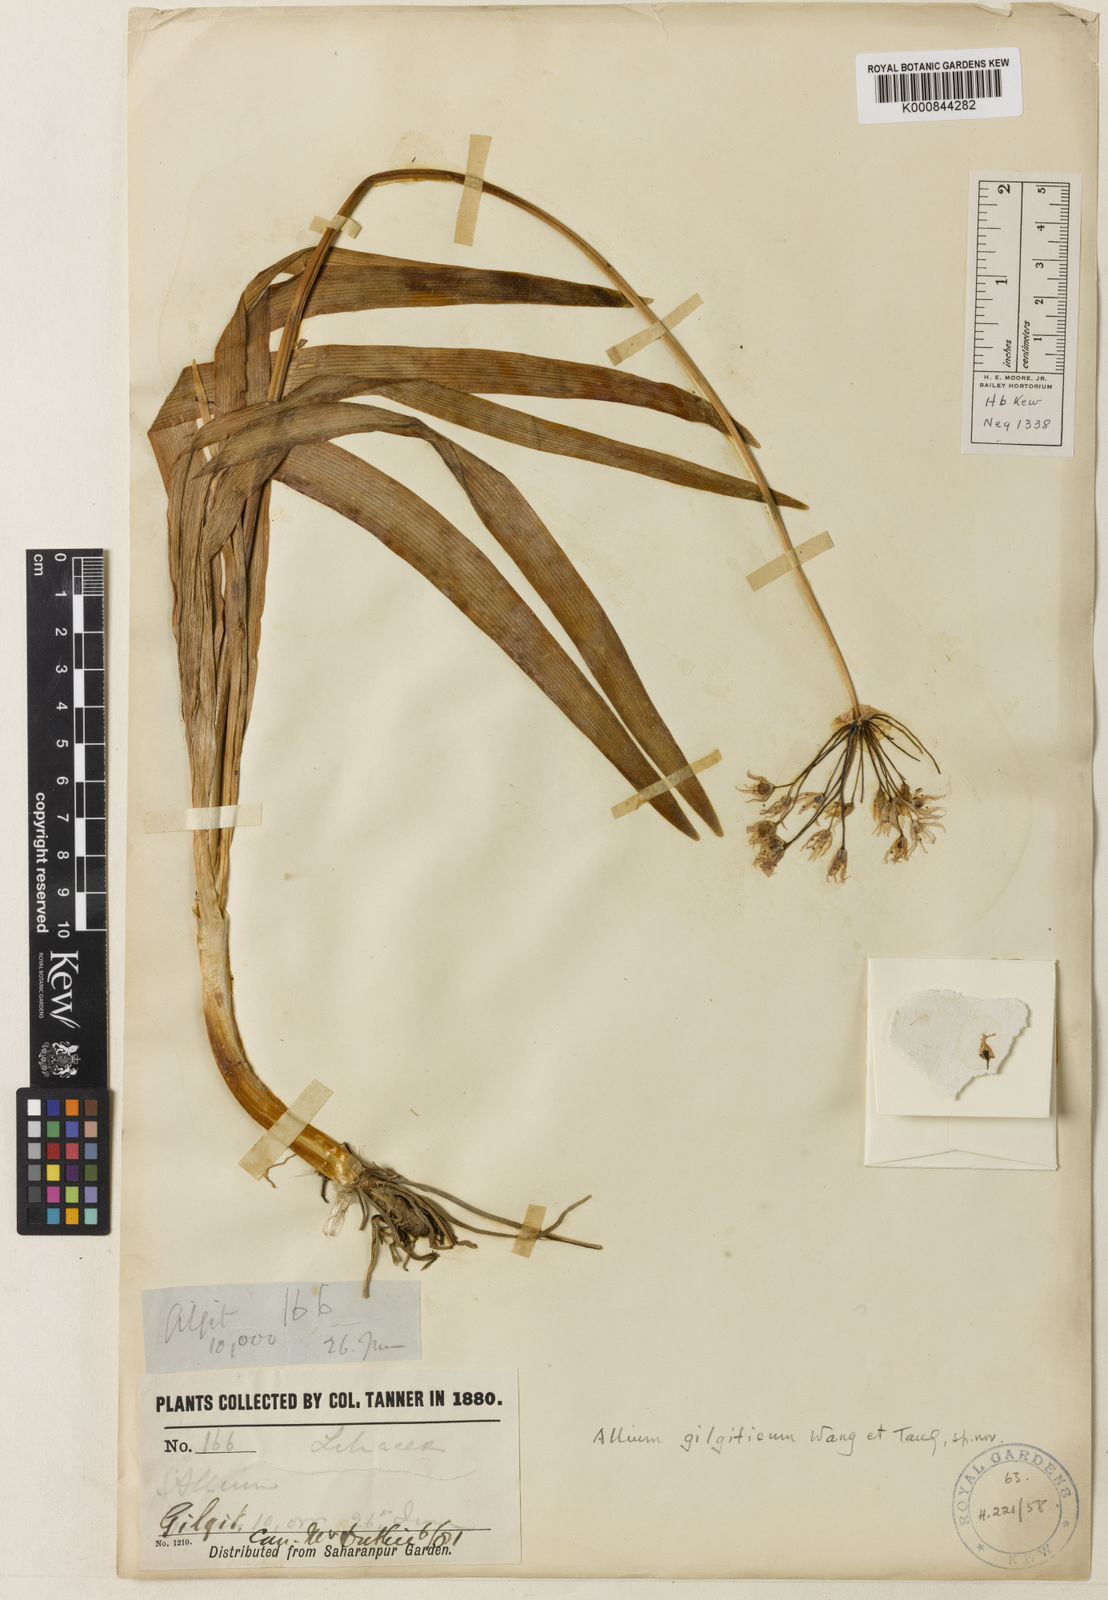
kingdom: Plantae
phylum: Tracheophyta
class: Liliopsida
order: Asparagales
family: Amaryllidaceae
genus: Allium
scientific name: Allium gilgiticum
